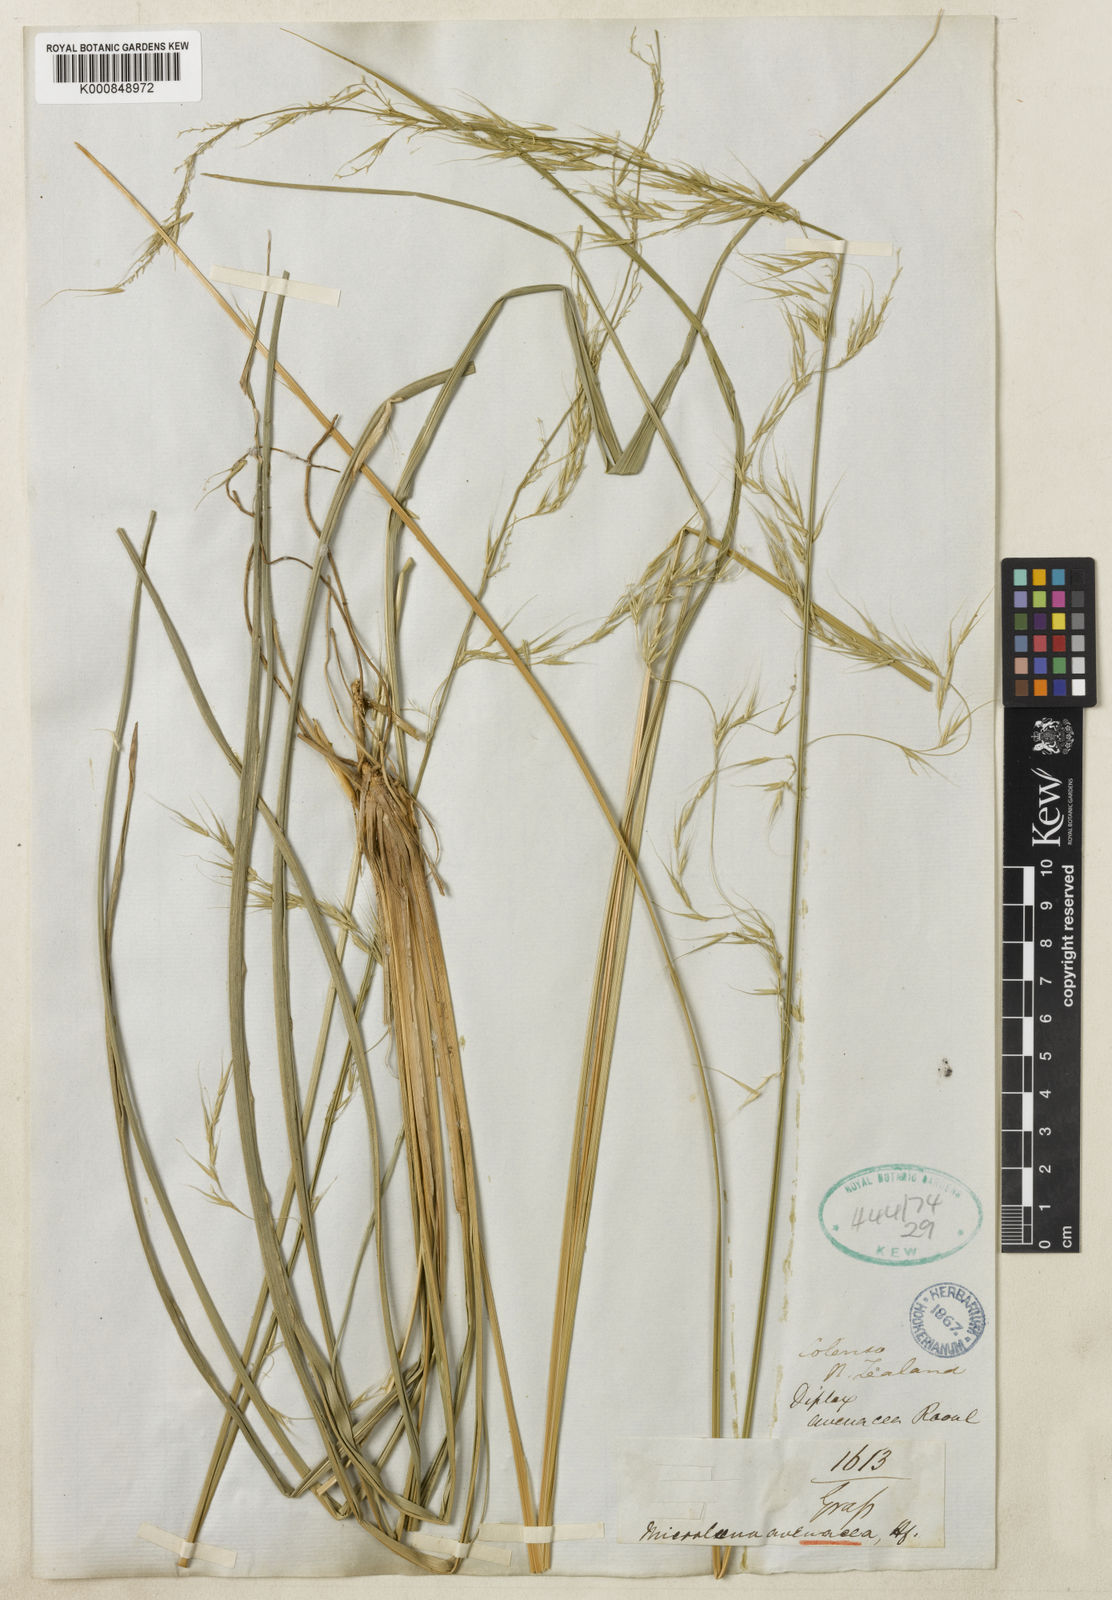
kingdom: Plantae
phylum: Tracheophyta
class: Liliopsida
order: Poales
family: Poaceae
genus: Ehrharta
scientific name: Ehrharta diplax
